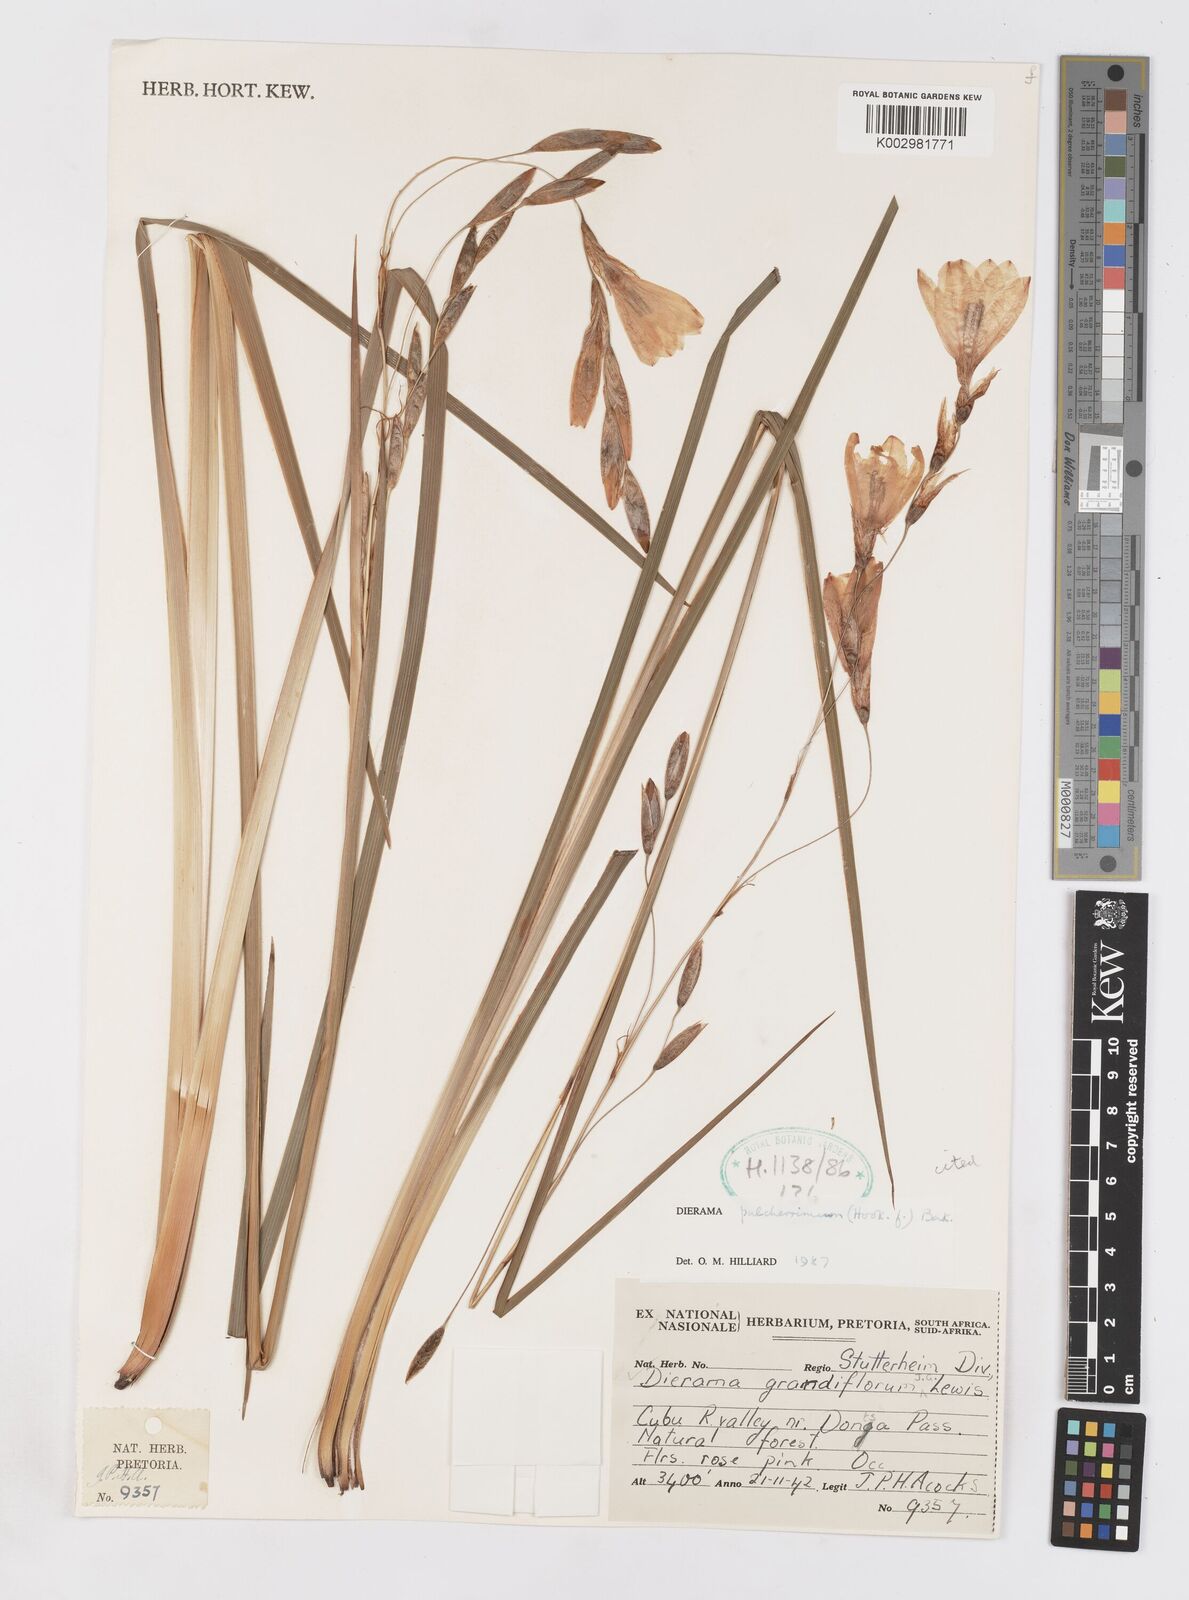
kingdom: Plantae
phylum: Tracheophyta
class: Liliopsida
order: Asparagales
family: Iridaceae
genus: Dierama
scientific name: Dierama pulcherrimum
